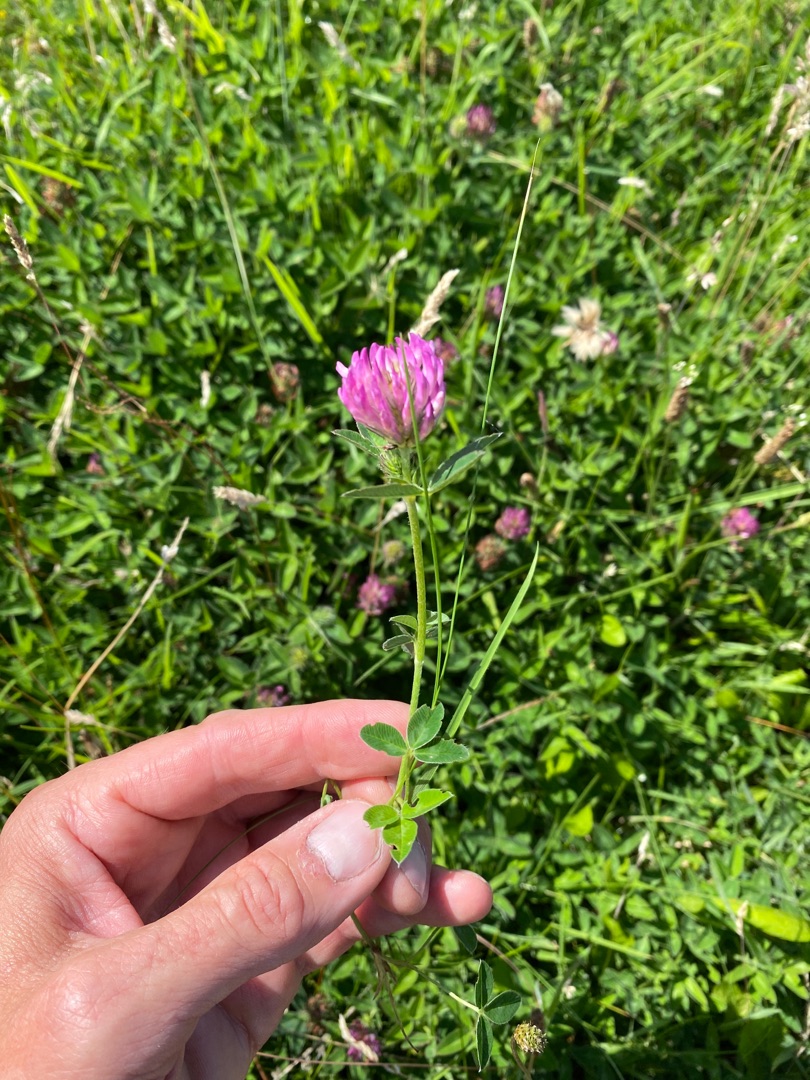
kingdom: Plantae
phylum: Tracheophyta
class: Magnoliopsida
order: Fabales
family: Fabaceae
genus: Trifolium
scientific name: Trifolium medium
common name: Bugtet kløver
